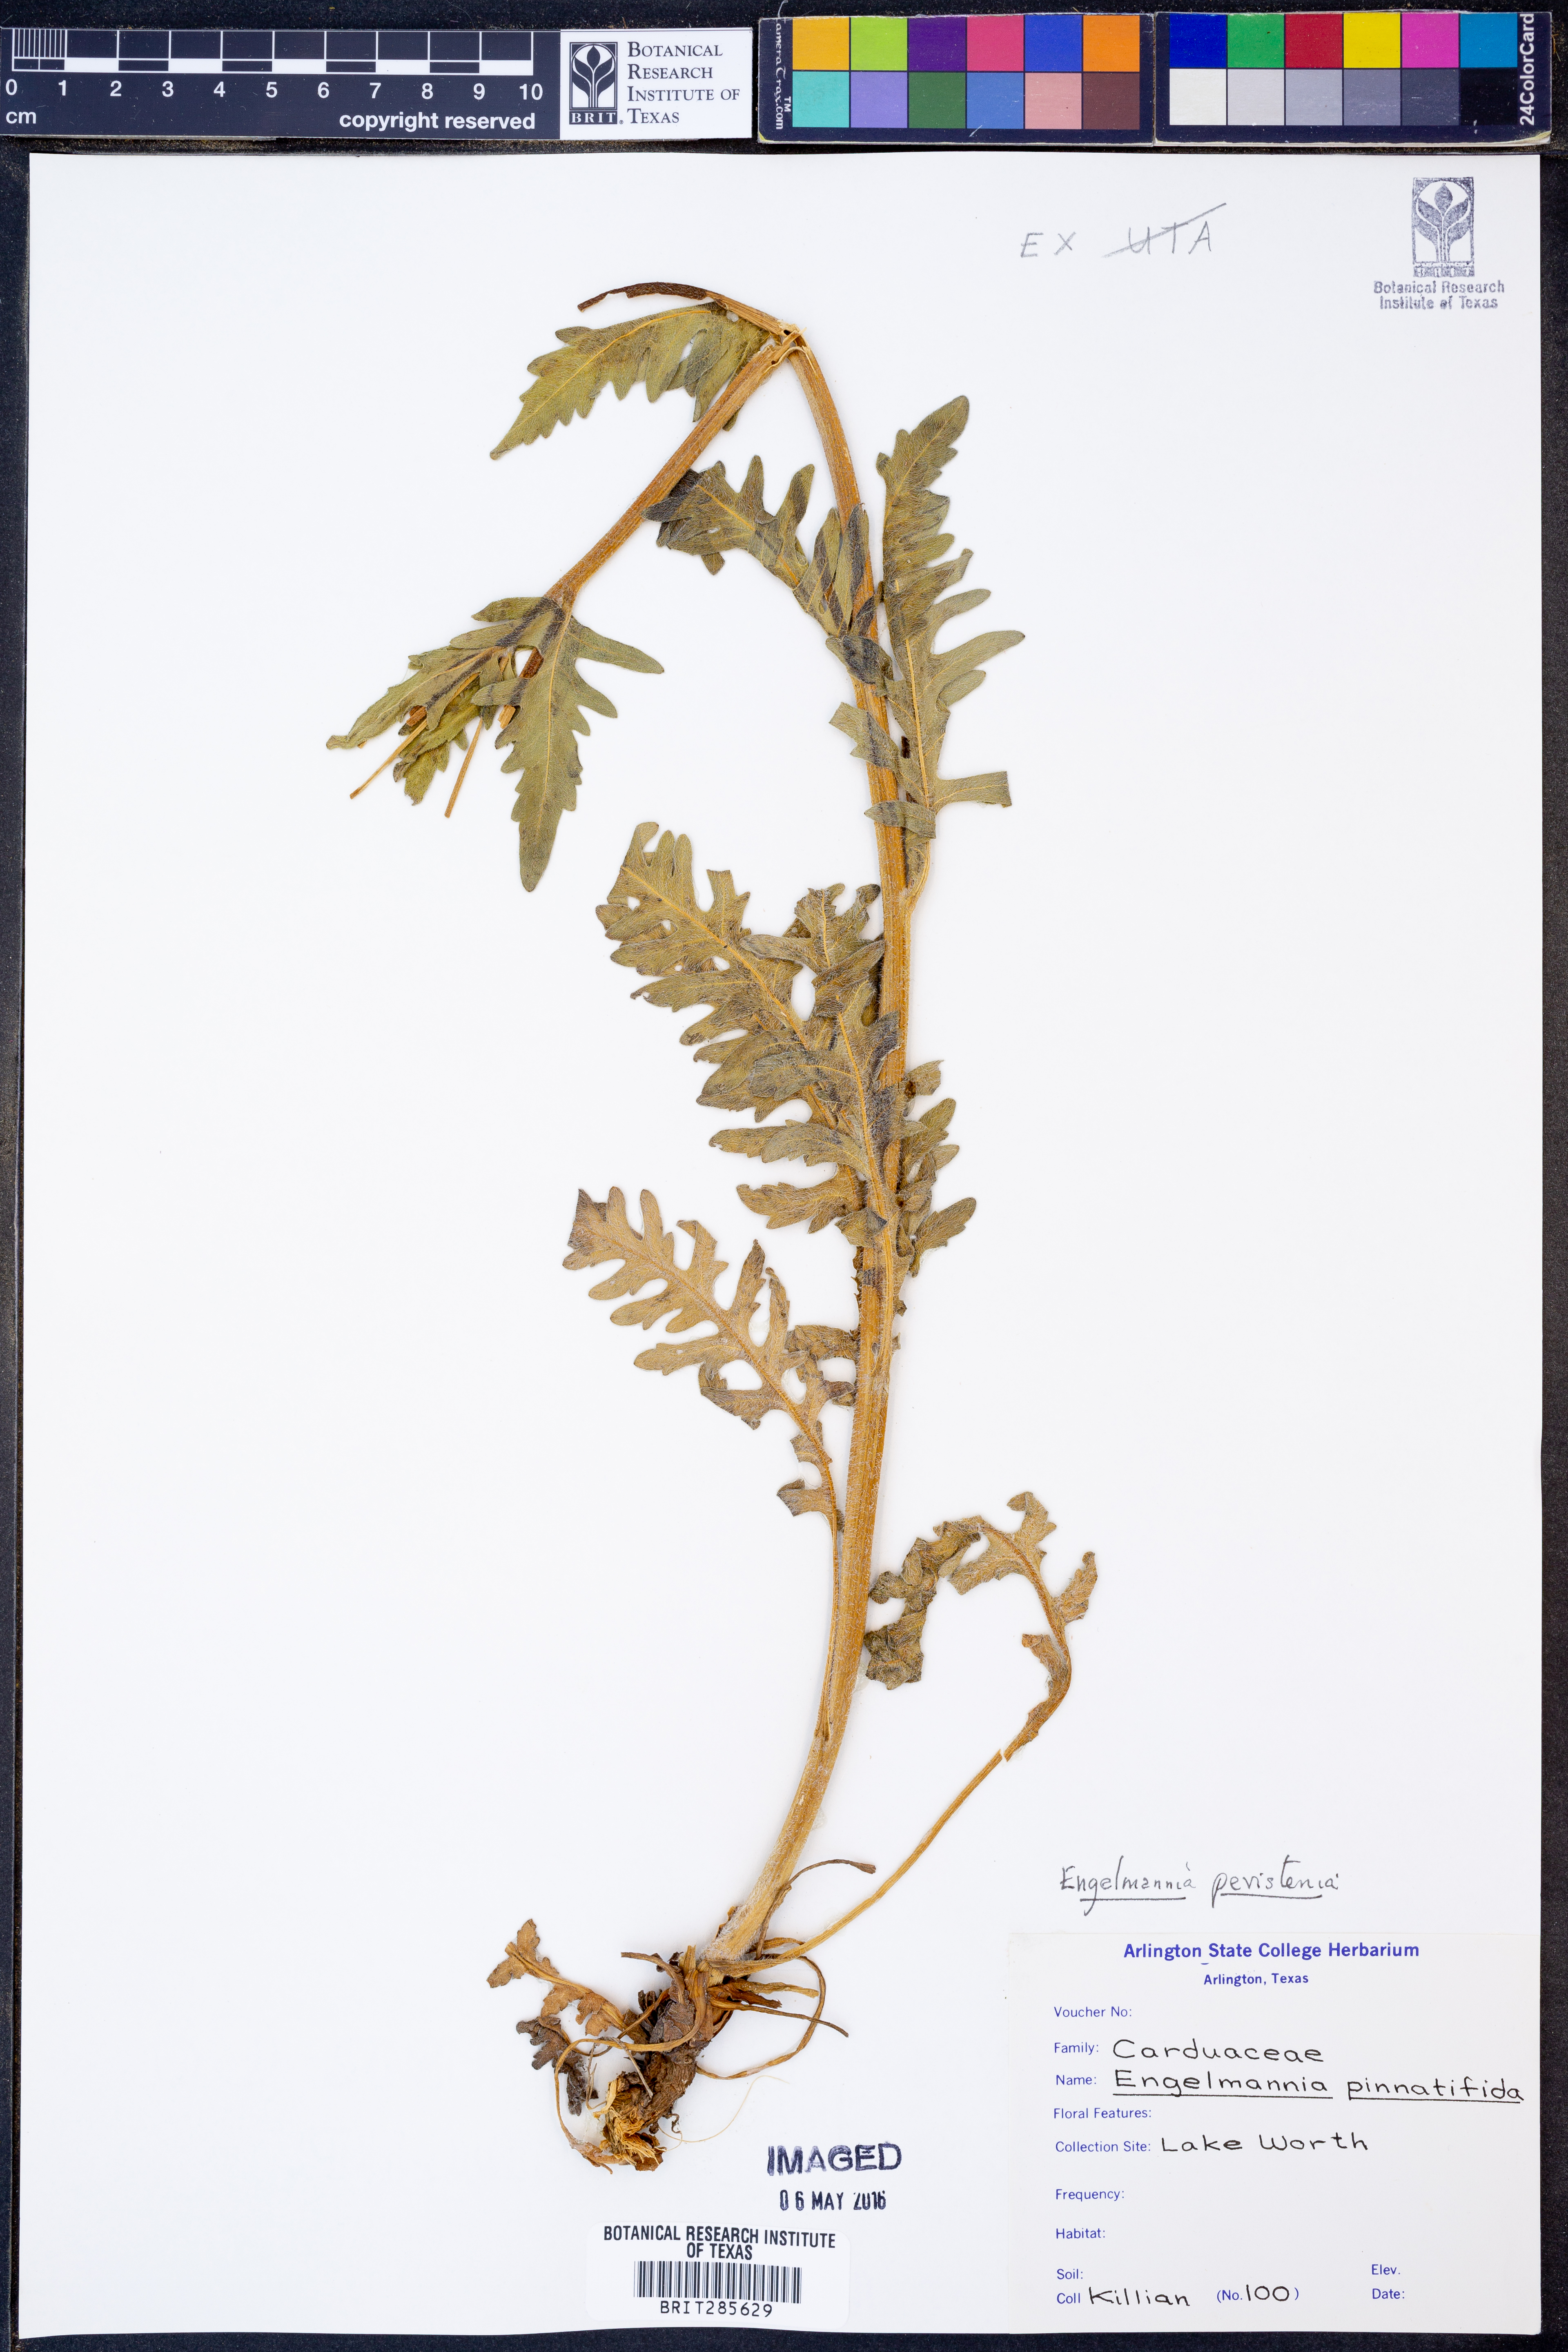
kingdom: Plantae
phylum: Tracheophyta
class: Magnoliopsida
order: Asterales
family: Asteraceae
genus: Engelmannia
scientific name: Engelmannia peristenia
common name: Engelmann's daisy
